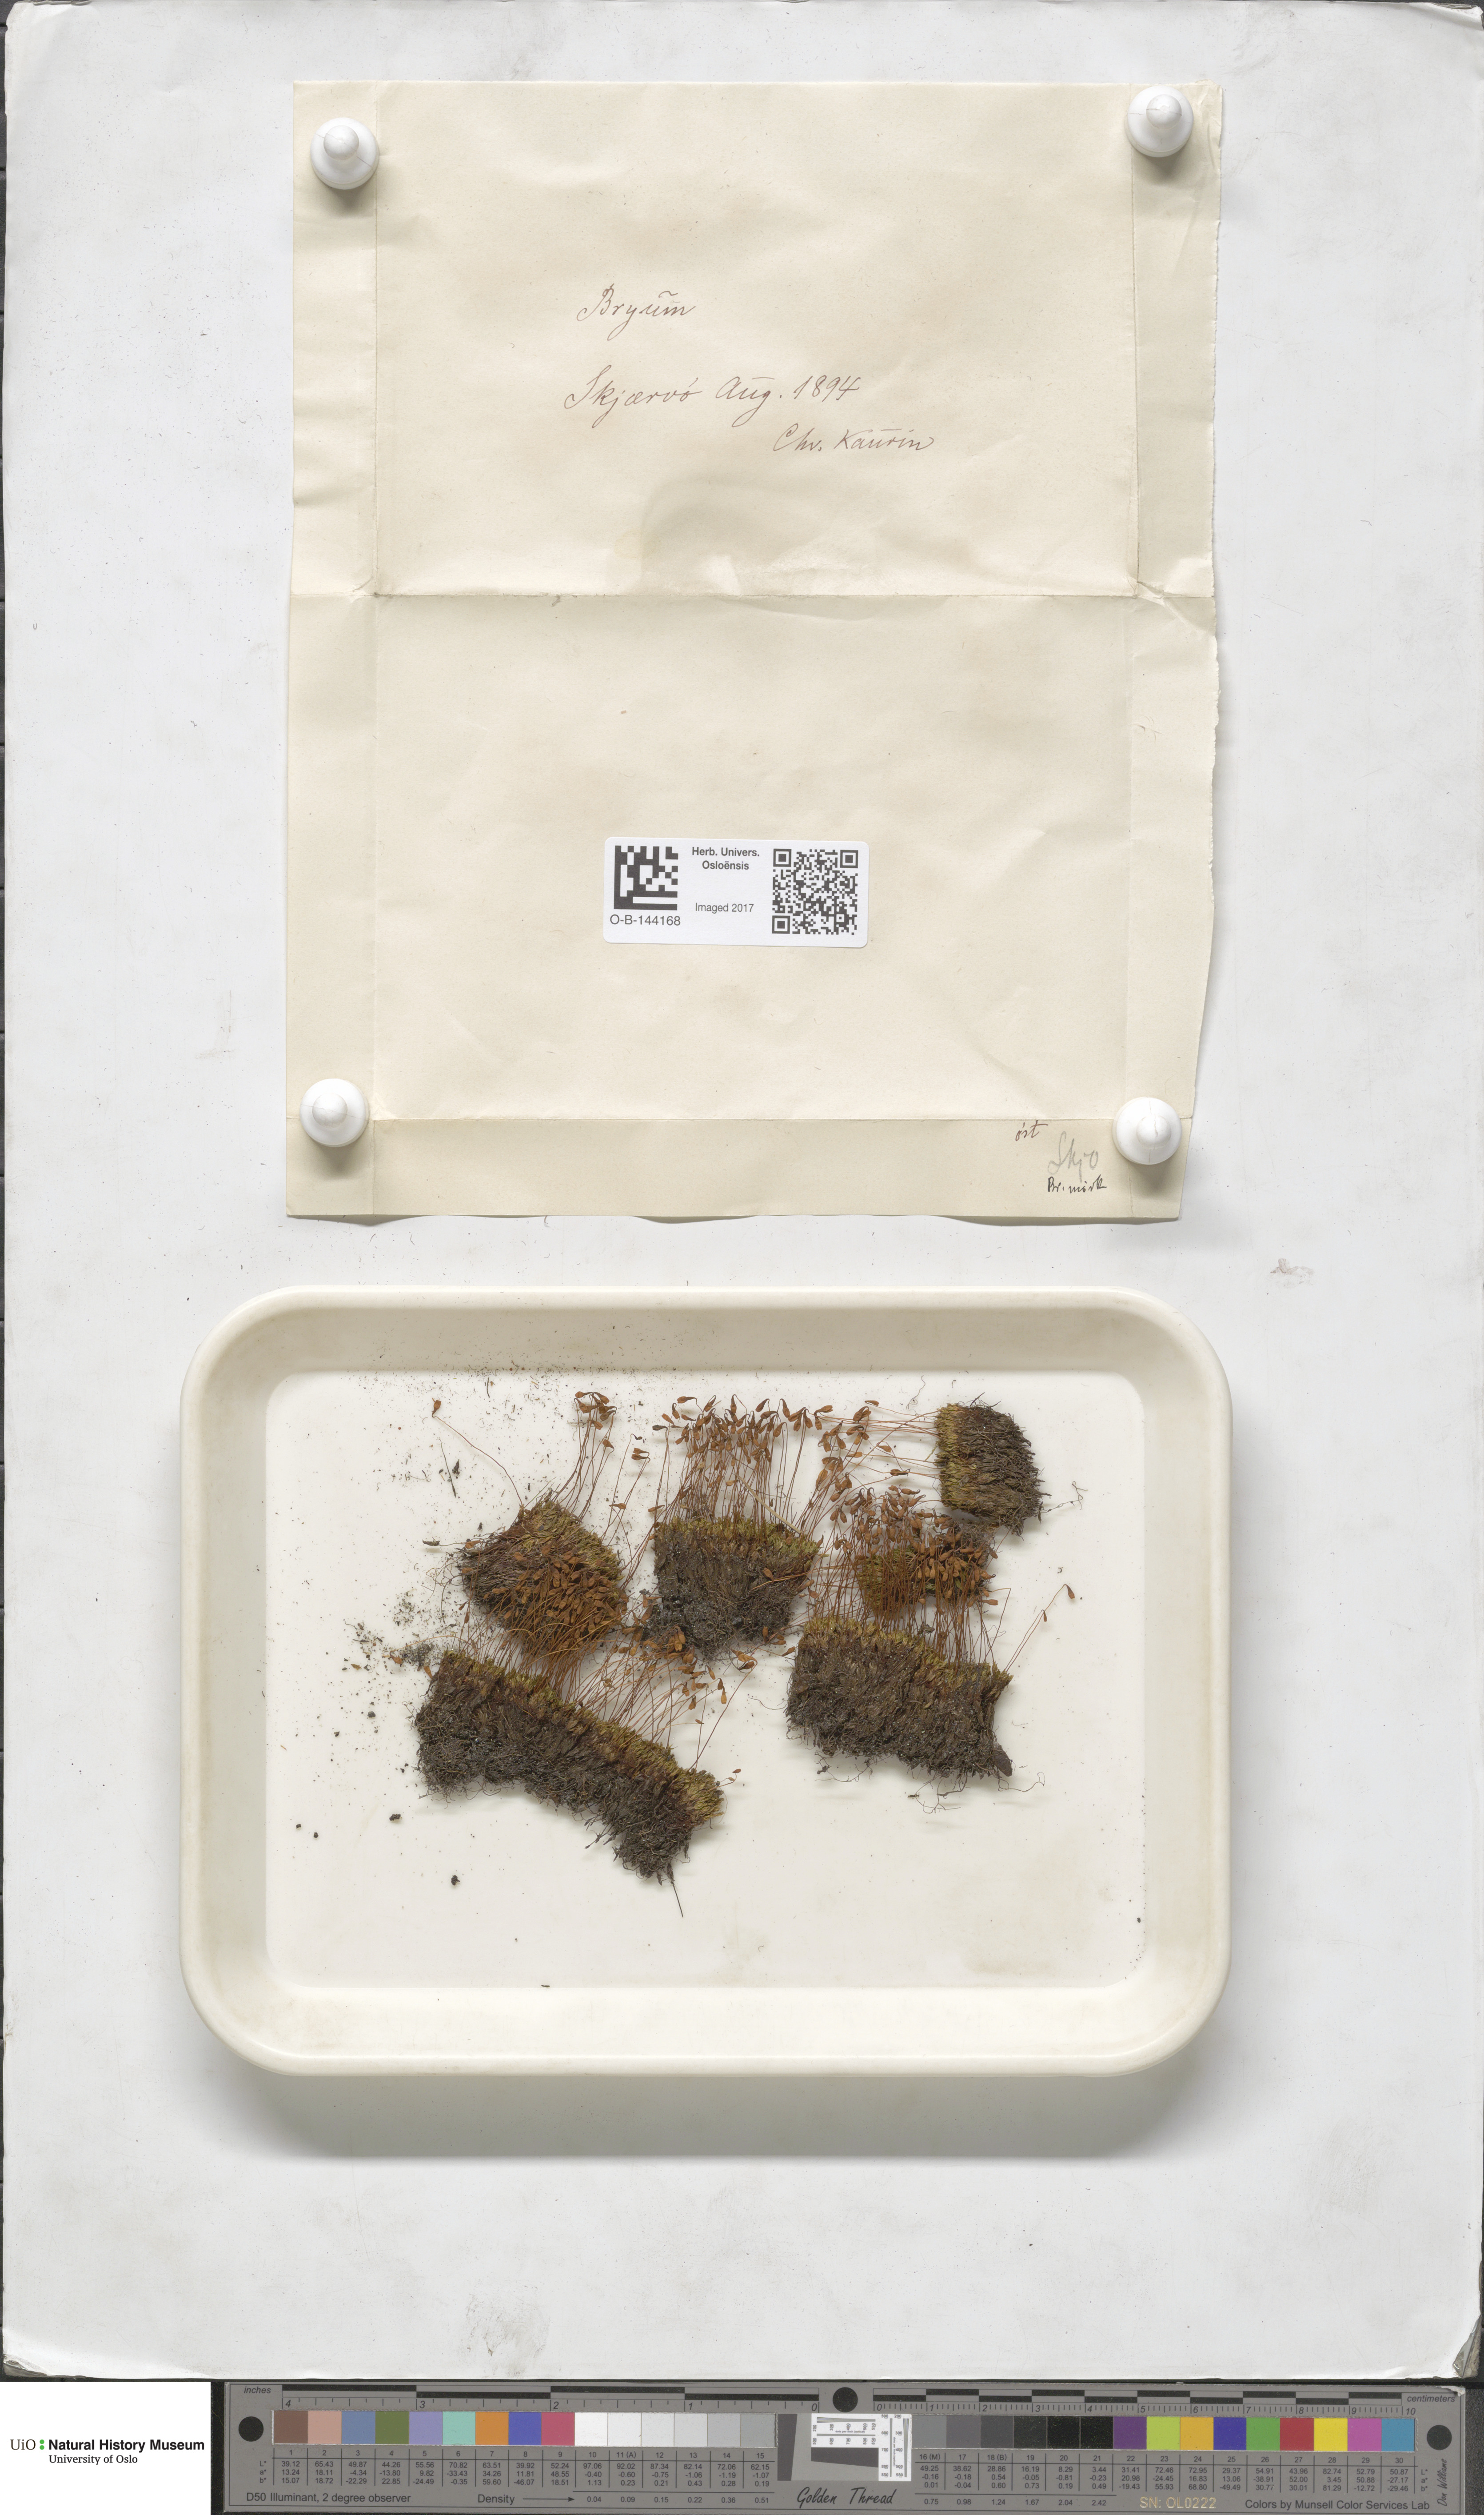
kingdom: Plantae
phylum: Bryophyta
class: Bryopsida
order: Bryales
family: Bryaceae
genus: Bryum
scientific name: Bryum
